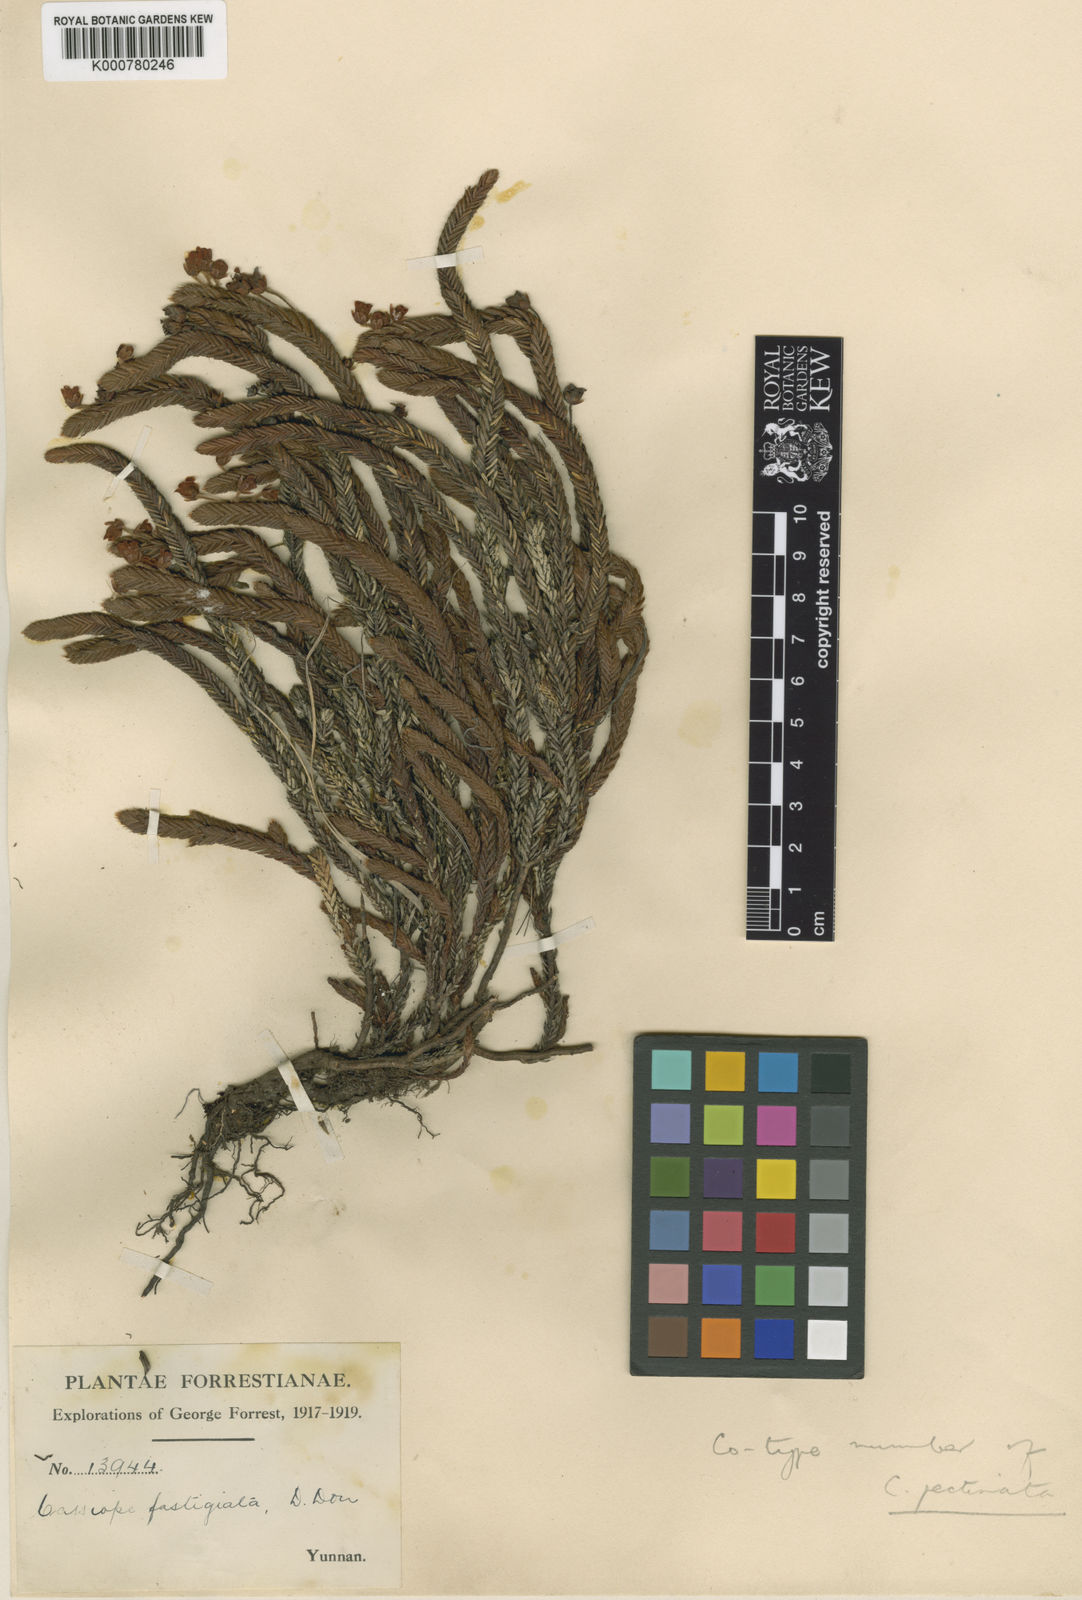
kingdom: Plantae
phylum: Tracheophyta
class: Magnoliopsida
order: Ericales
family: Ericaceae
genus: Cassiope
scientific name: Cassiope pectinata
